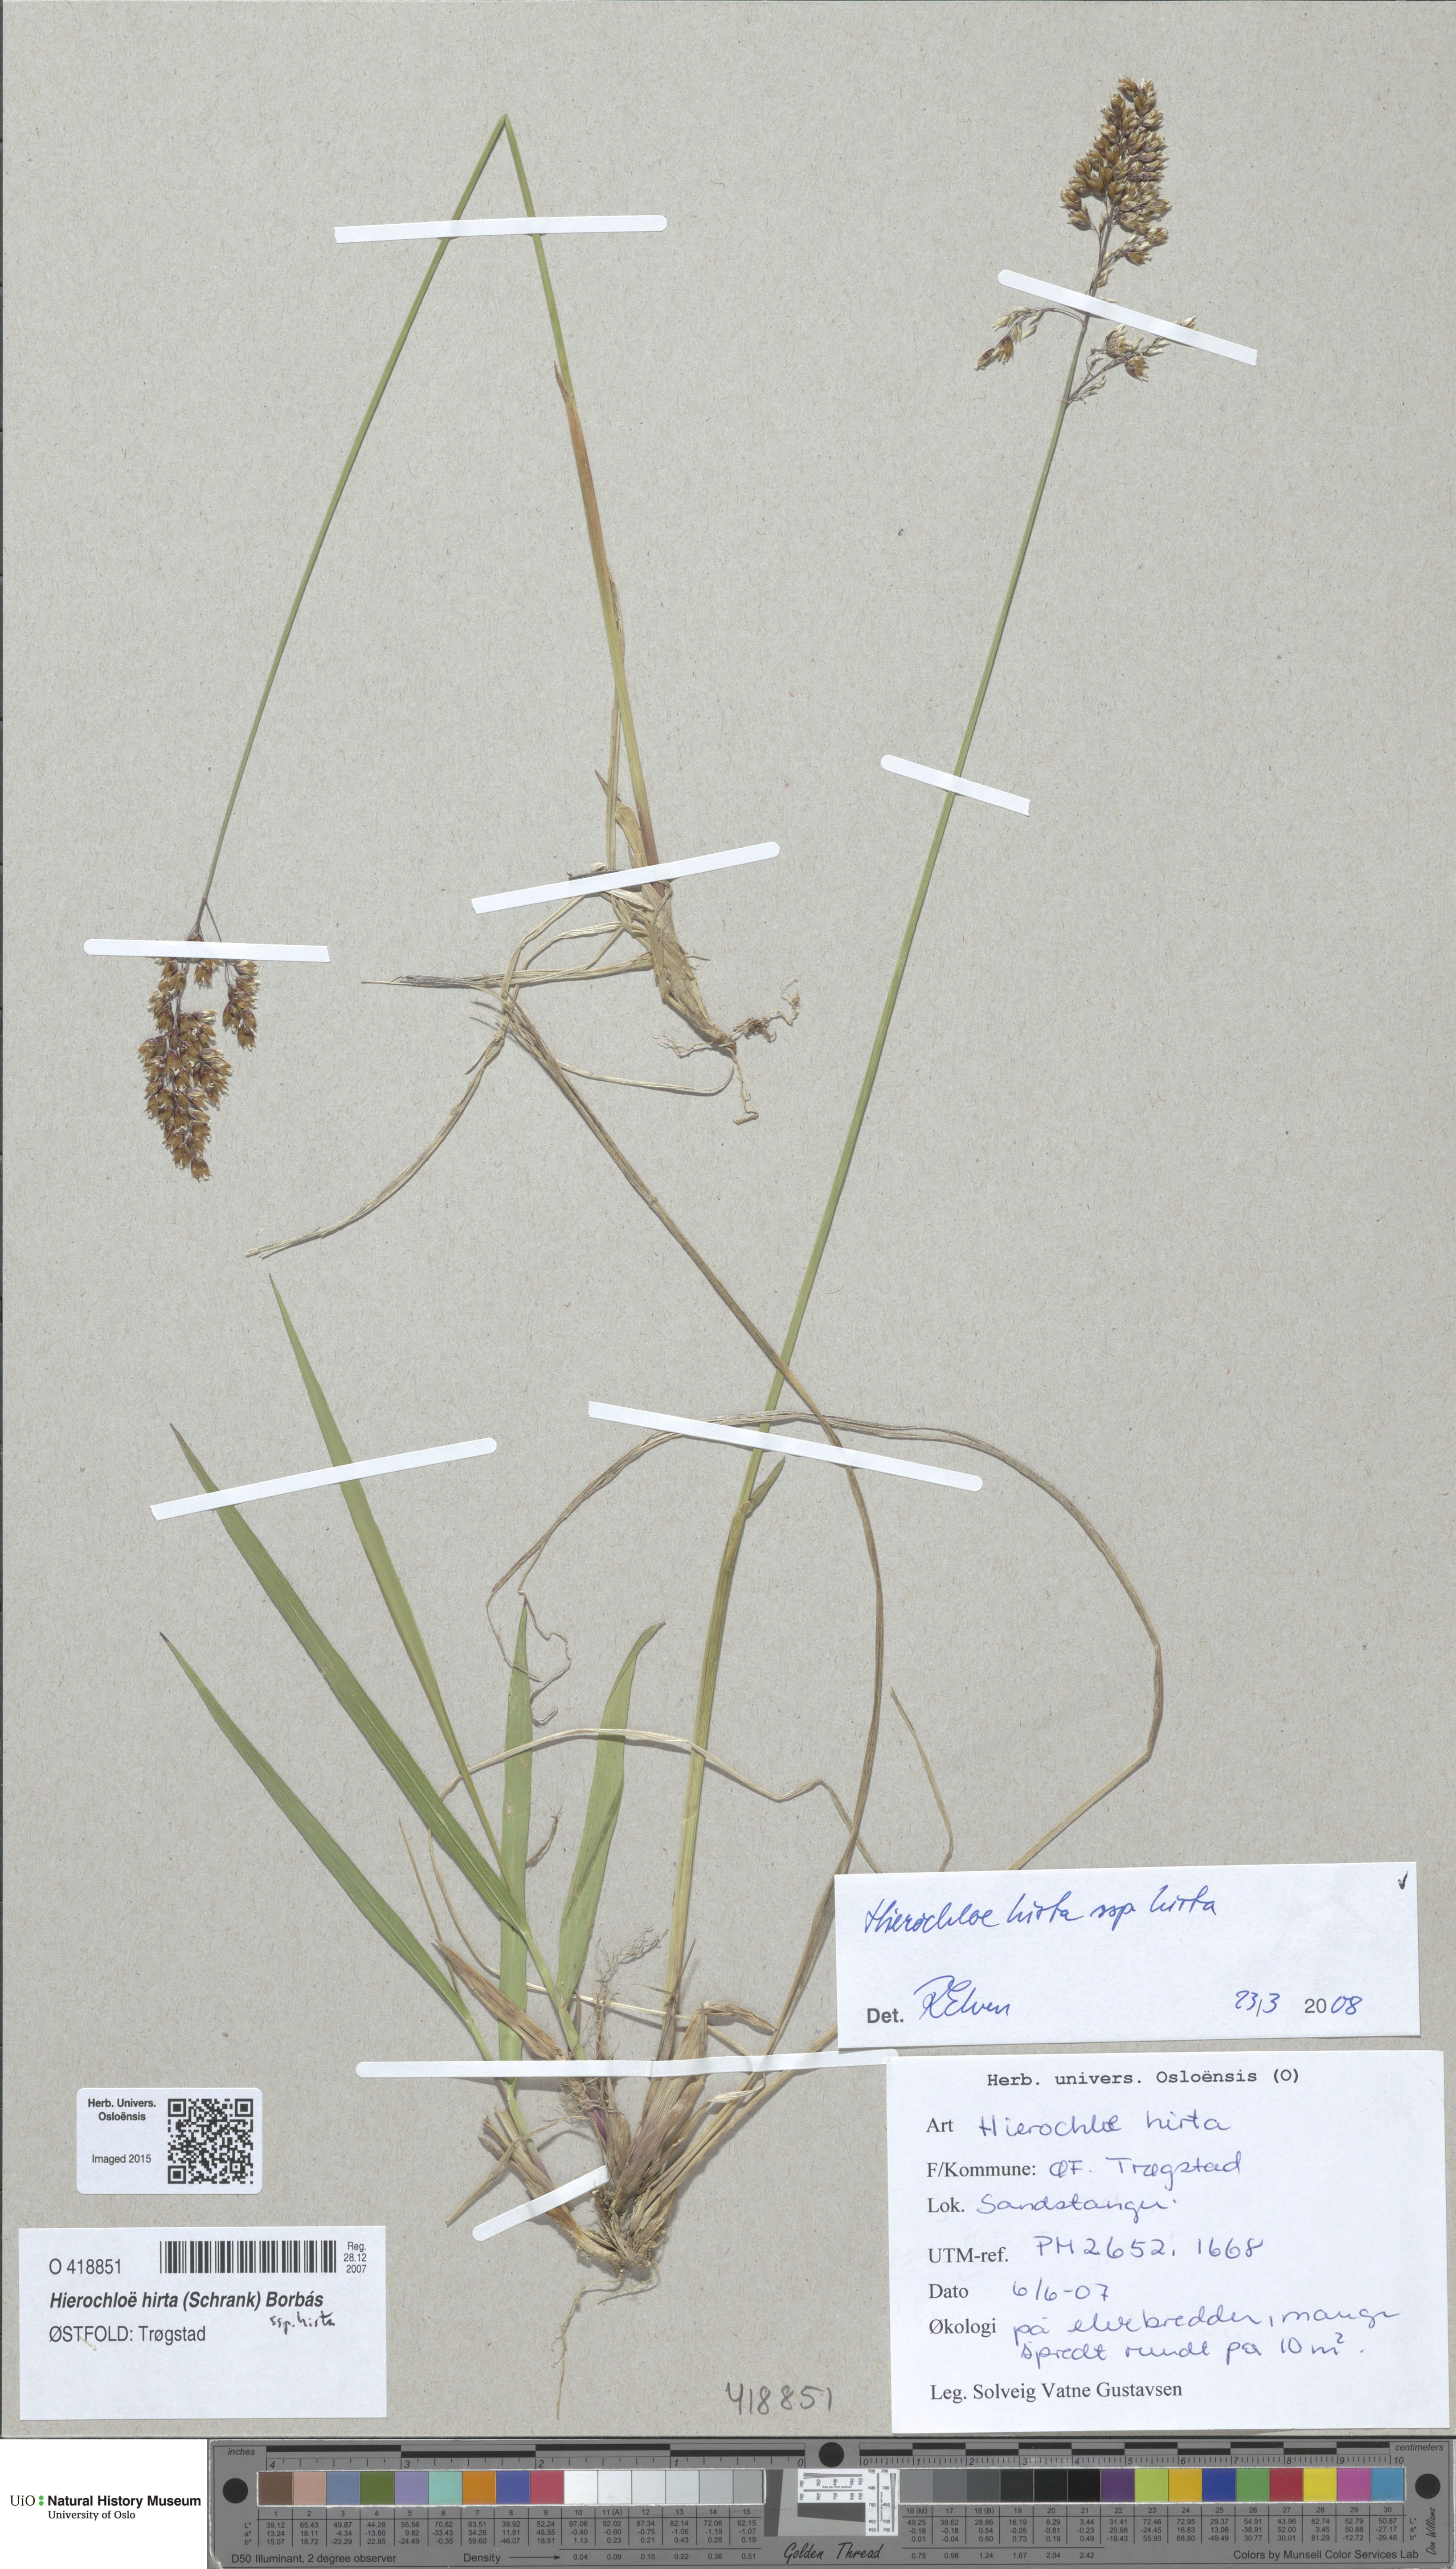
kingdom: Plantae
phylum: Tracheophyta
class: Liliopsida
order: Poales
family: Poaceae
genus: Anthoxanthum
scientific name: Anthoxanthum nitens
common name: Holy grass
